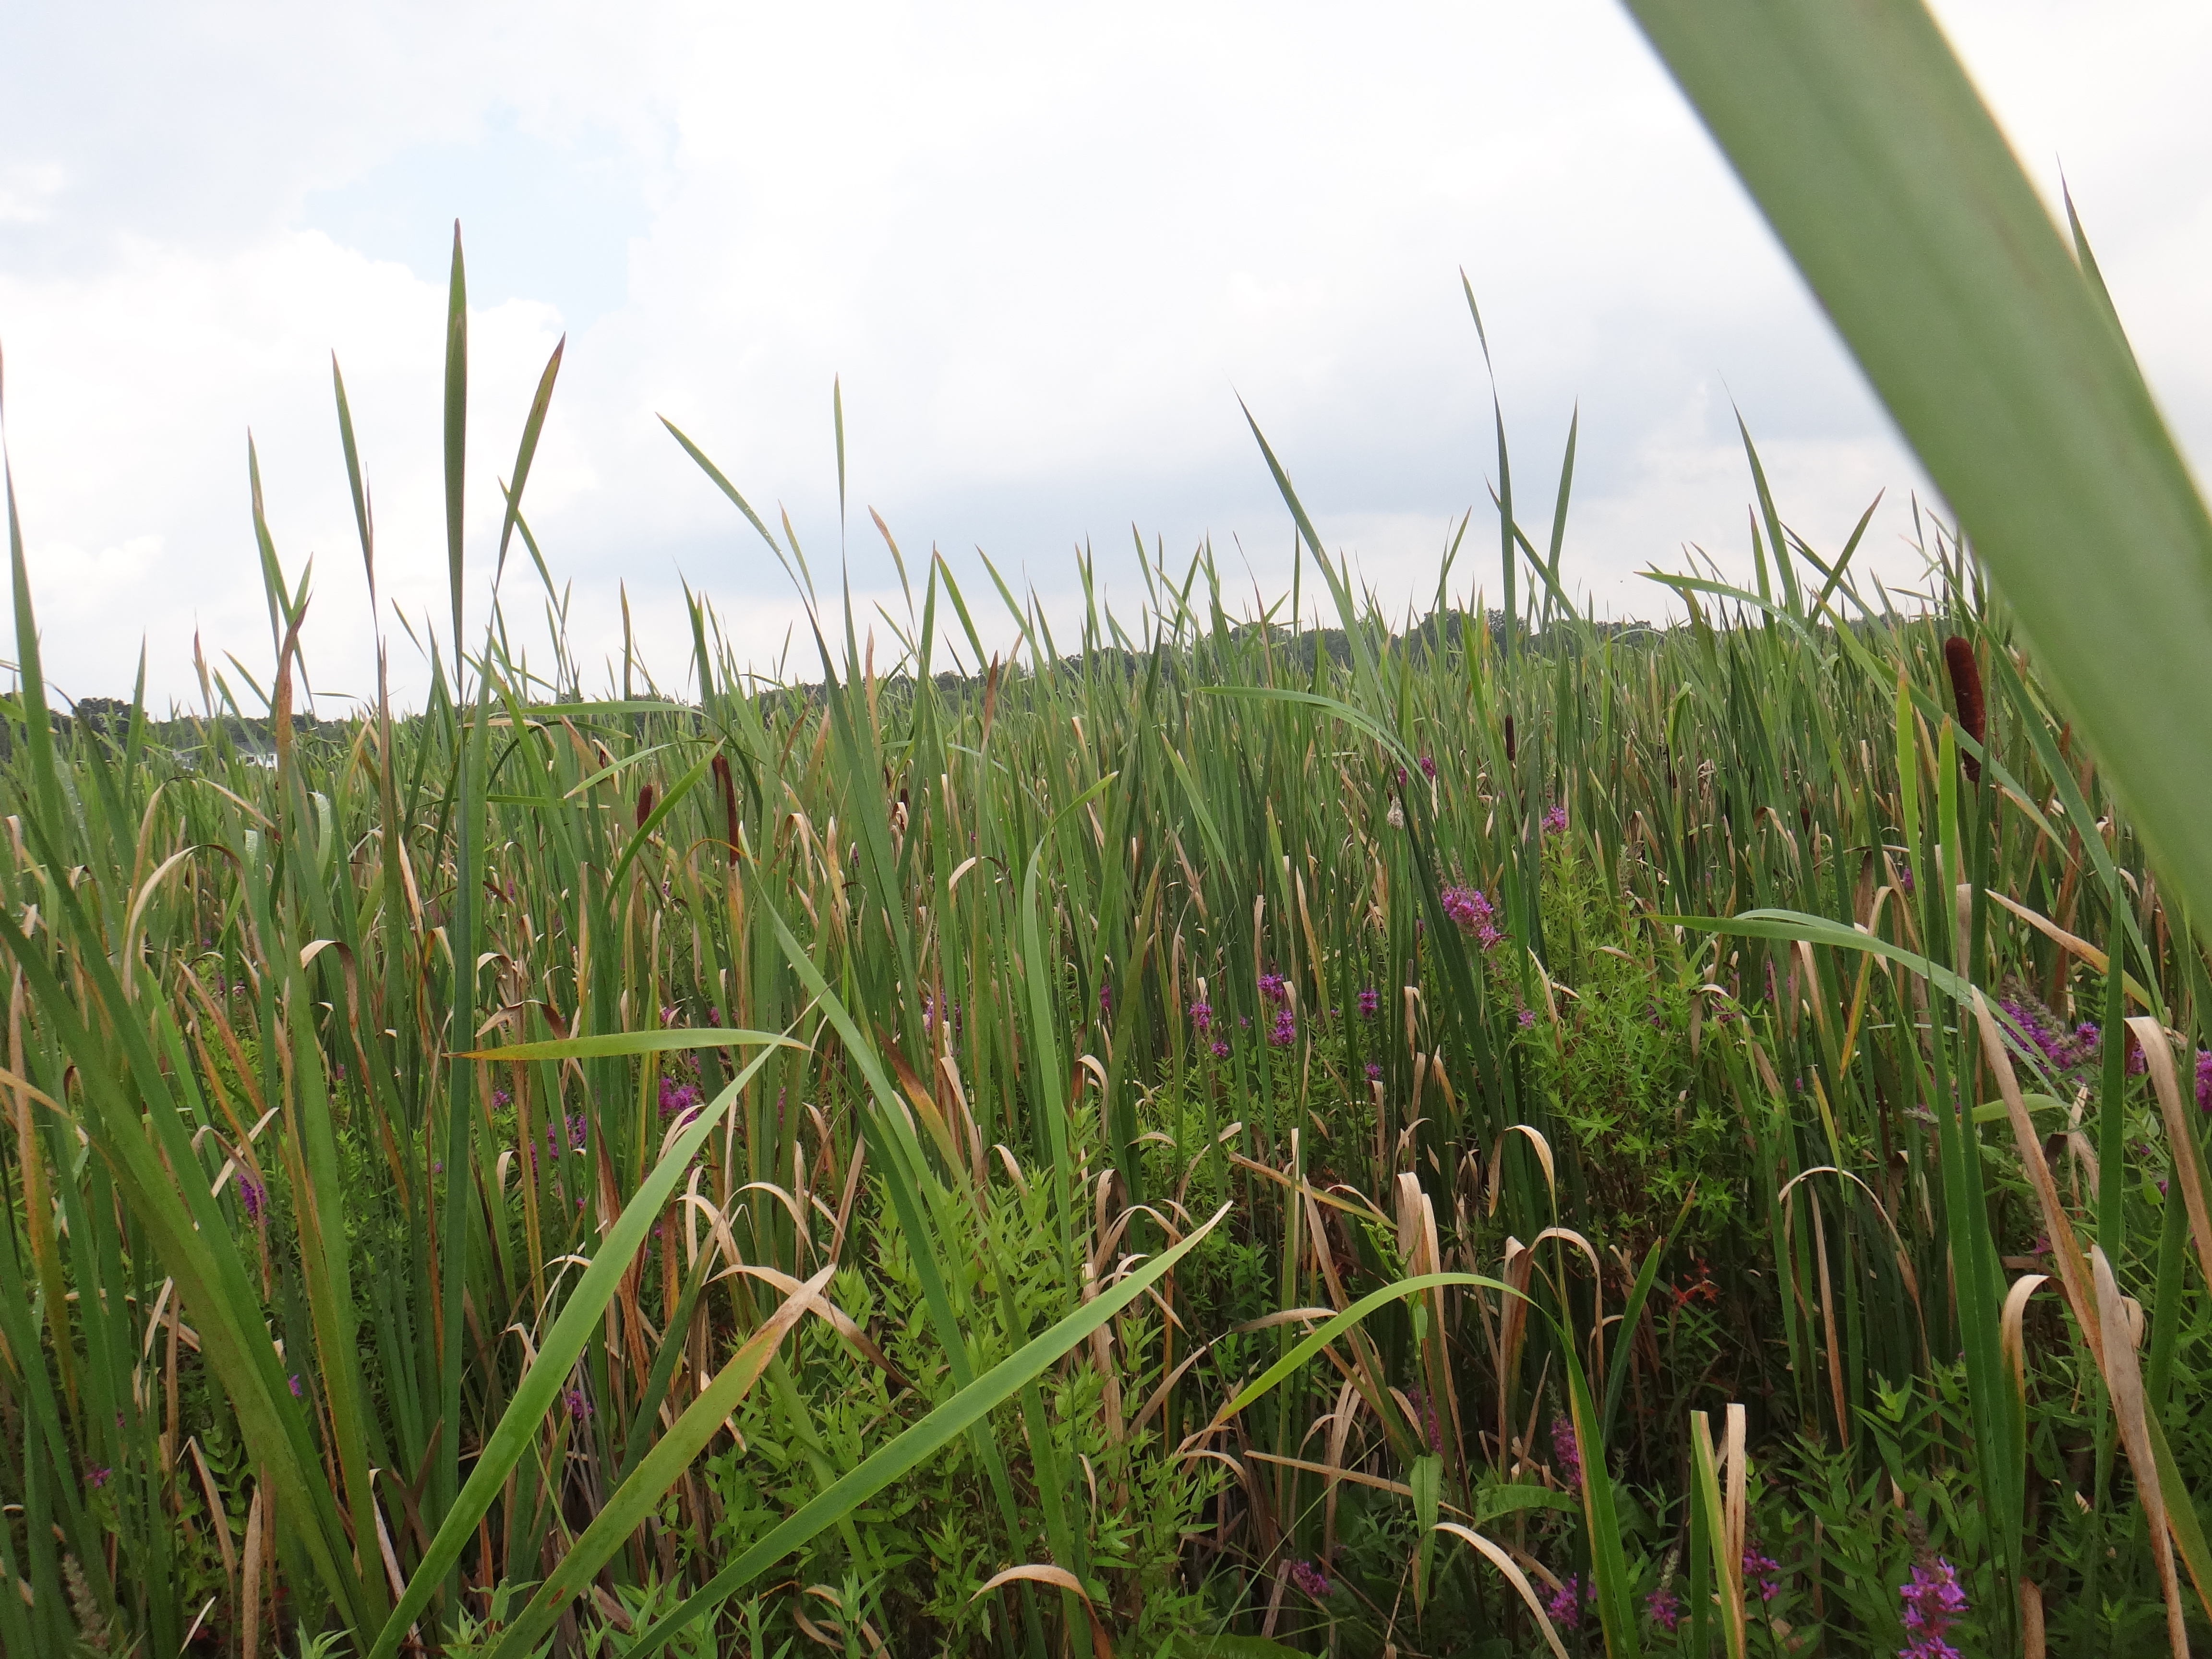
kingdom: Plantae
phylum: Tracheophyta
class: Magnoliopsida
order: Lamiales
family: Lamiaceae
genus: Lycopus
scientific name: Lycopus uniflorus
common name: Northern bugleweed
